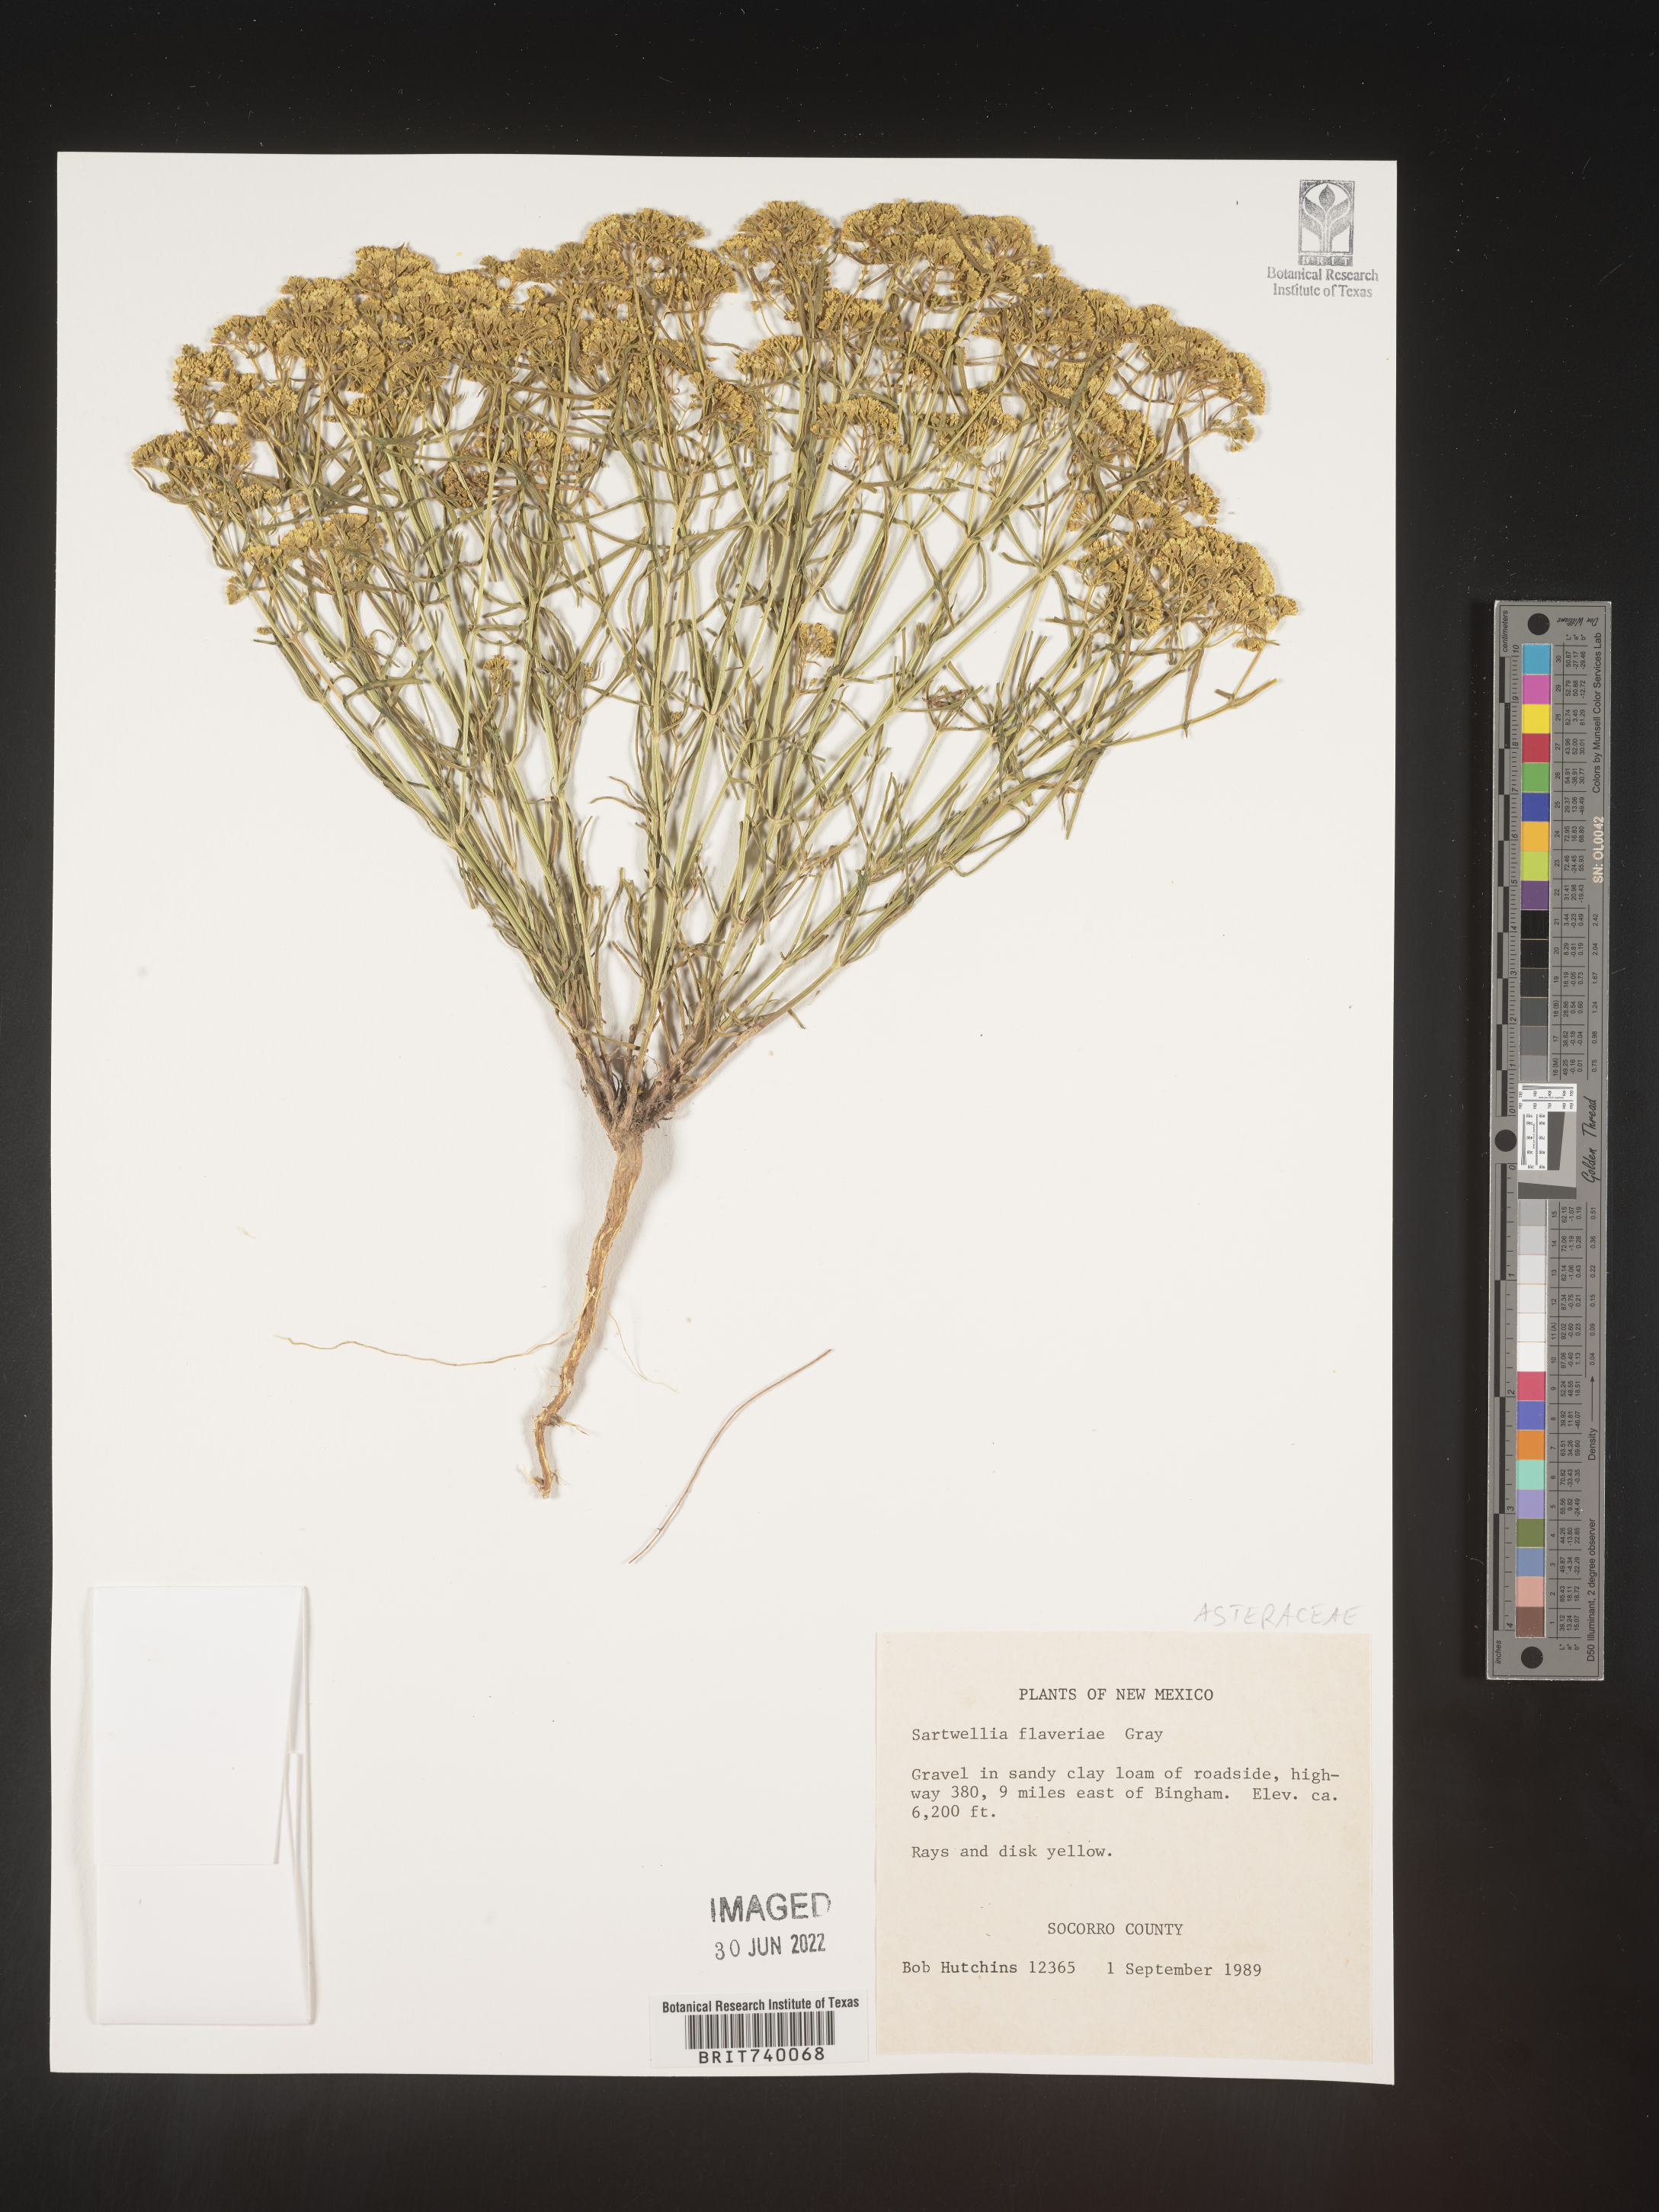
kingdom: Plantae
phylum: Tracheophyta
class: Magnoliopsida
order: Asterales
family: Asteraceae
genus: Sartwellia
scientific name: Sartwellia
